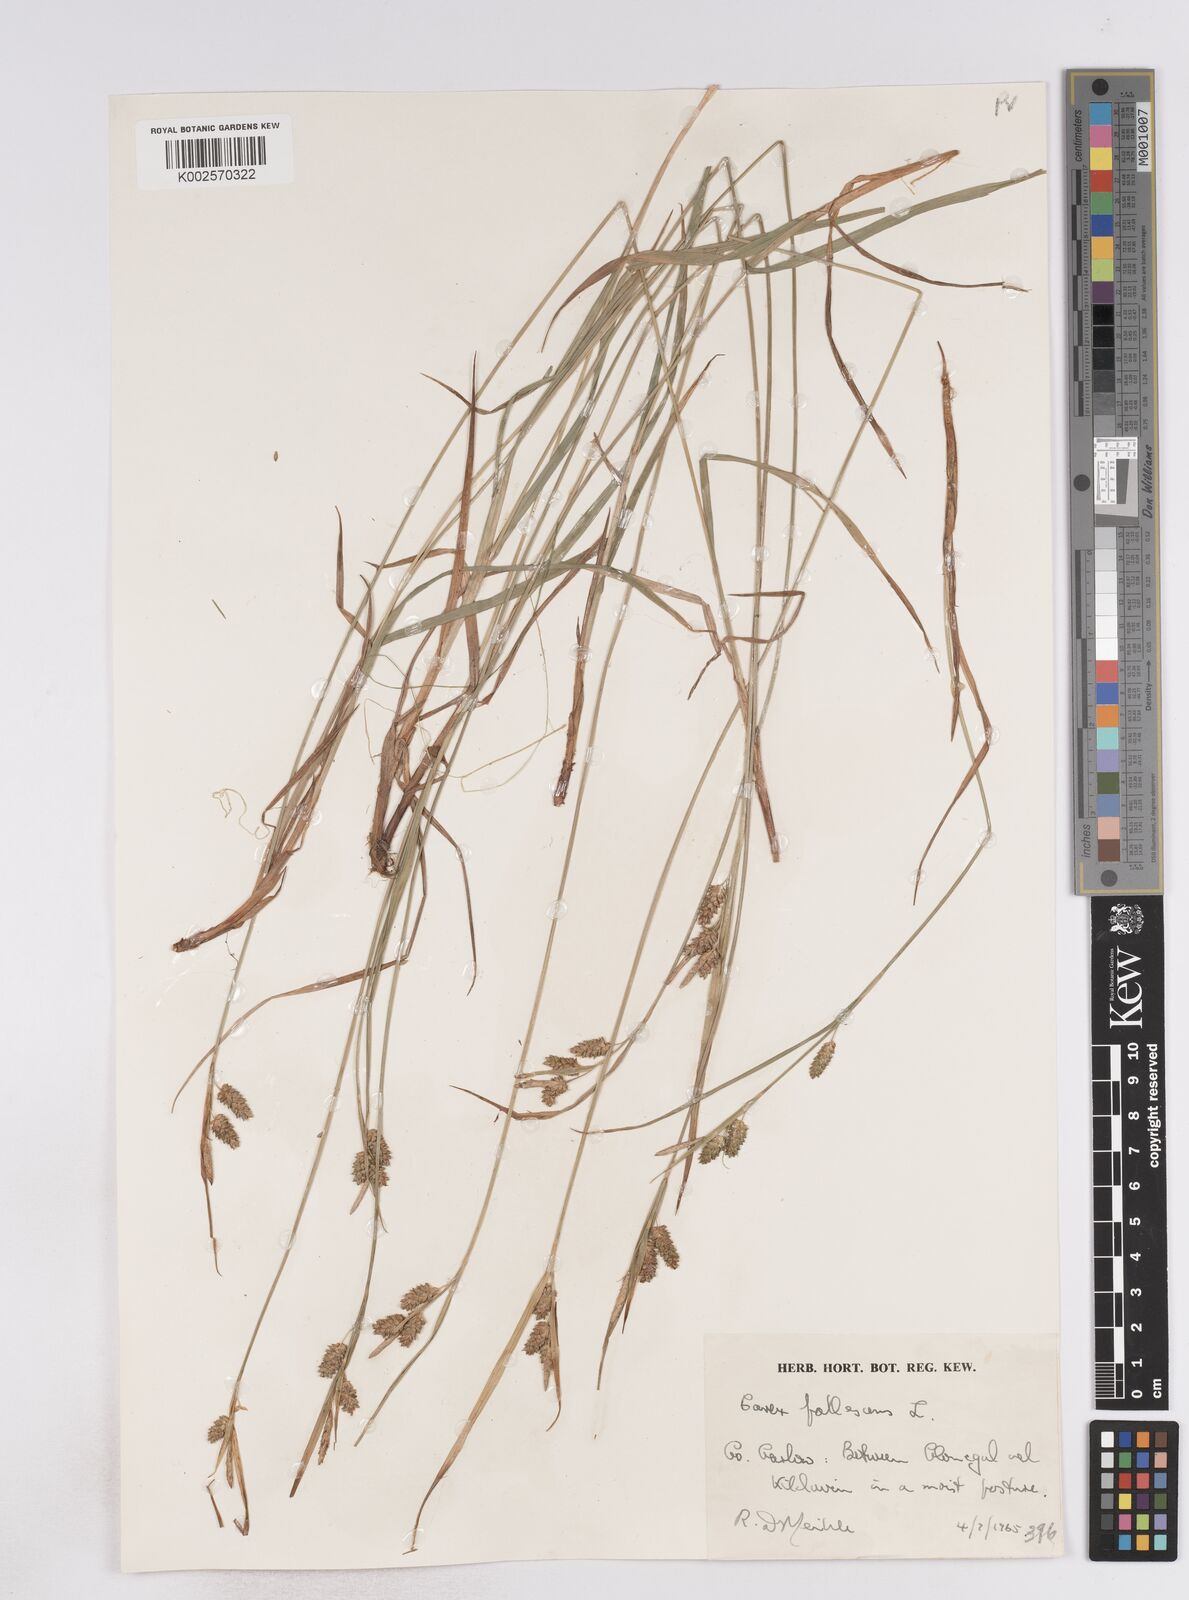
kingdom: Plantae
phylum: Tracheophyta
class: Liliopsida
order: Poales
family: Cyperaceae
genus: Carex
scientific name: Carex pallescens
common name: Pale sedge
